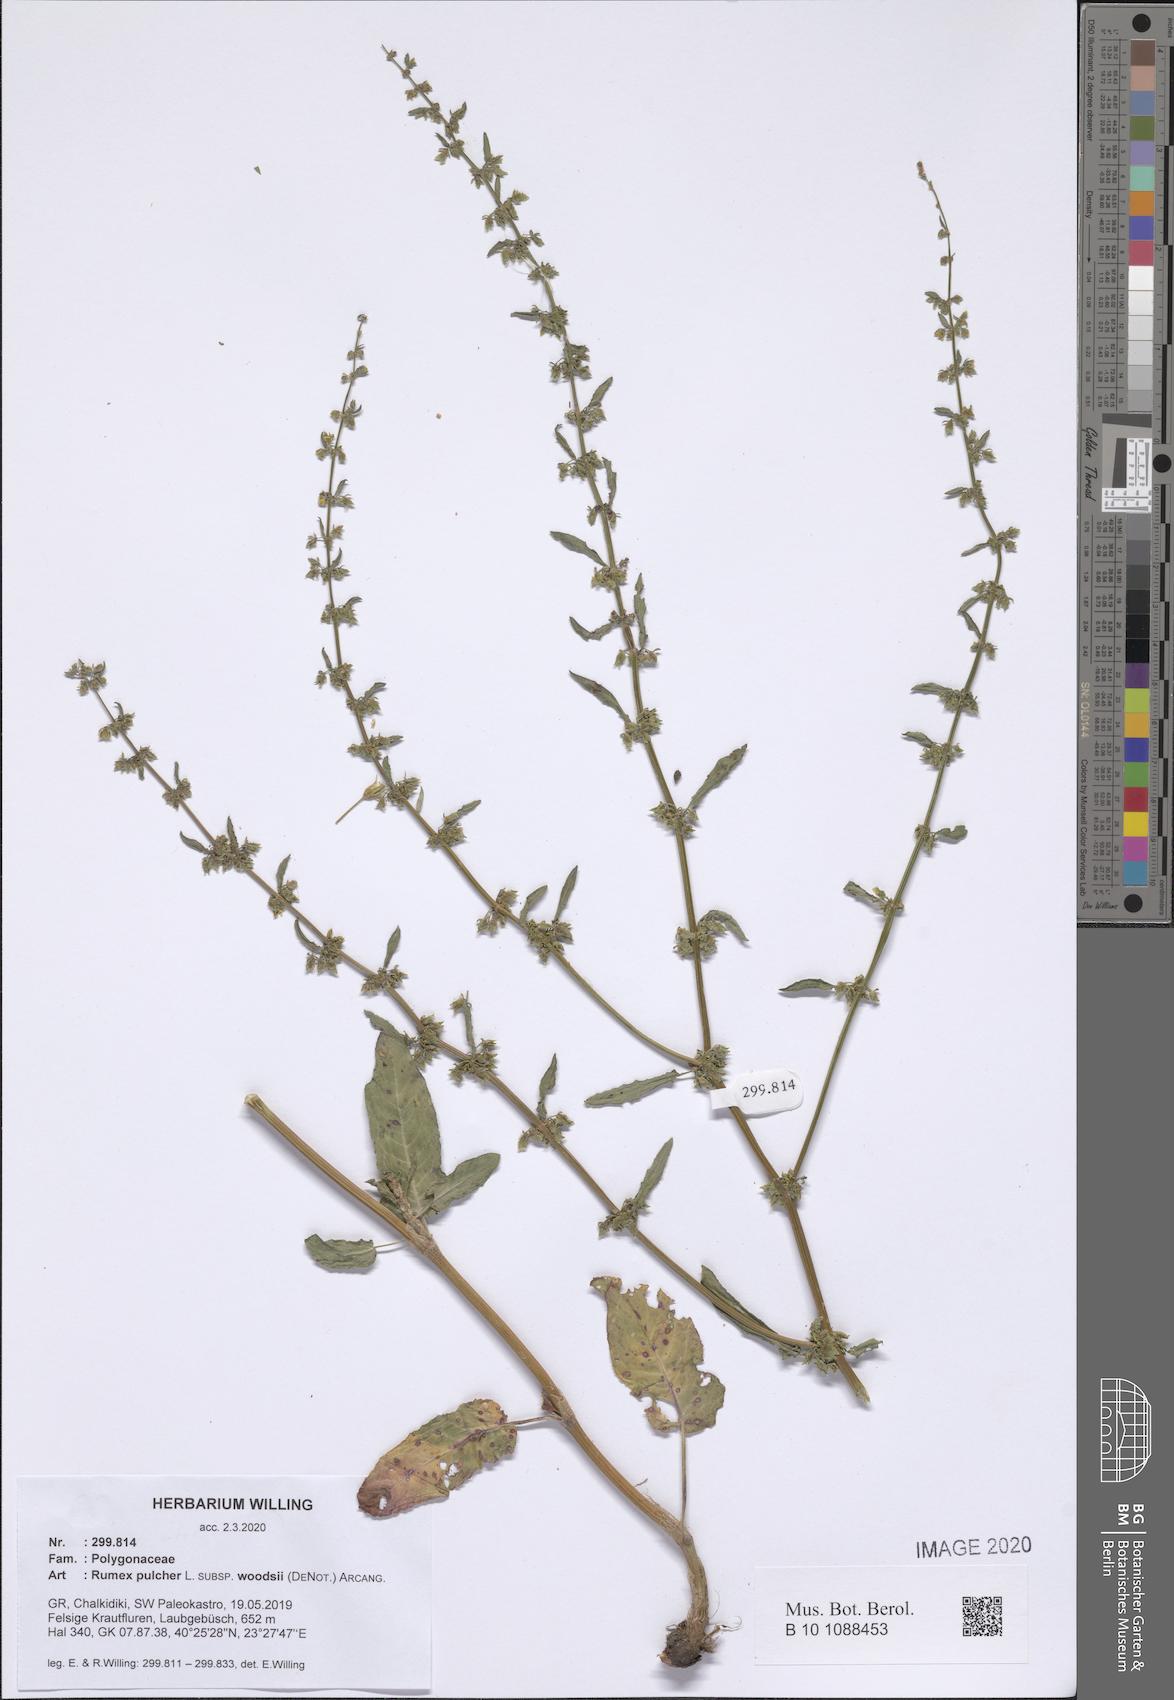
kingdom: Plantae
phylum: Tracheophyta
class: Magnoliopsida
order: Caryophyllales
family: Polygonaceae
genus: Rumex
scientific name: Rumex pulcher
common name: Fiddle dock
